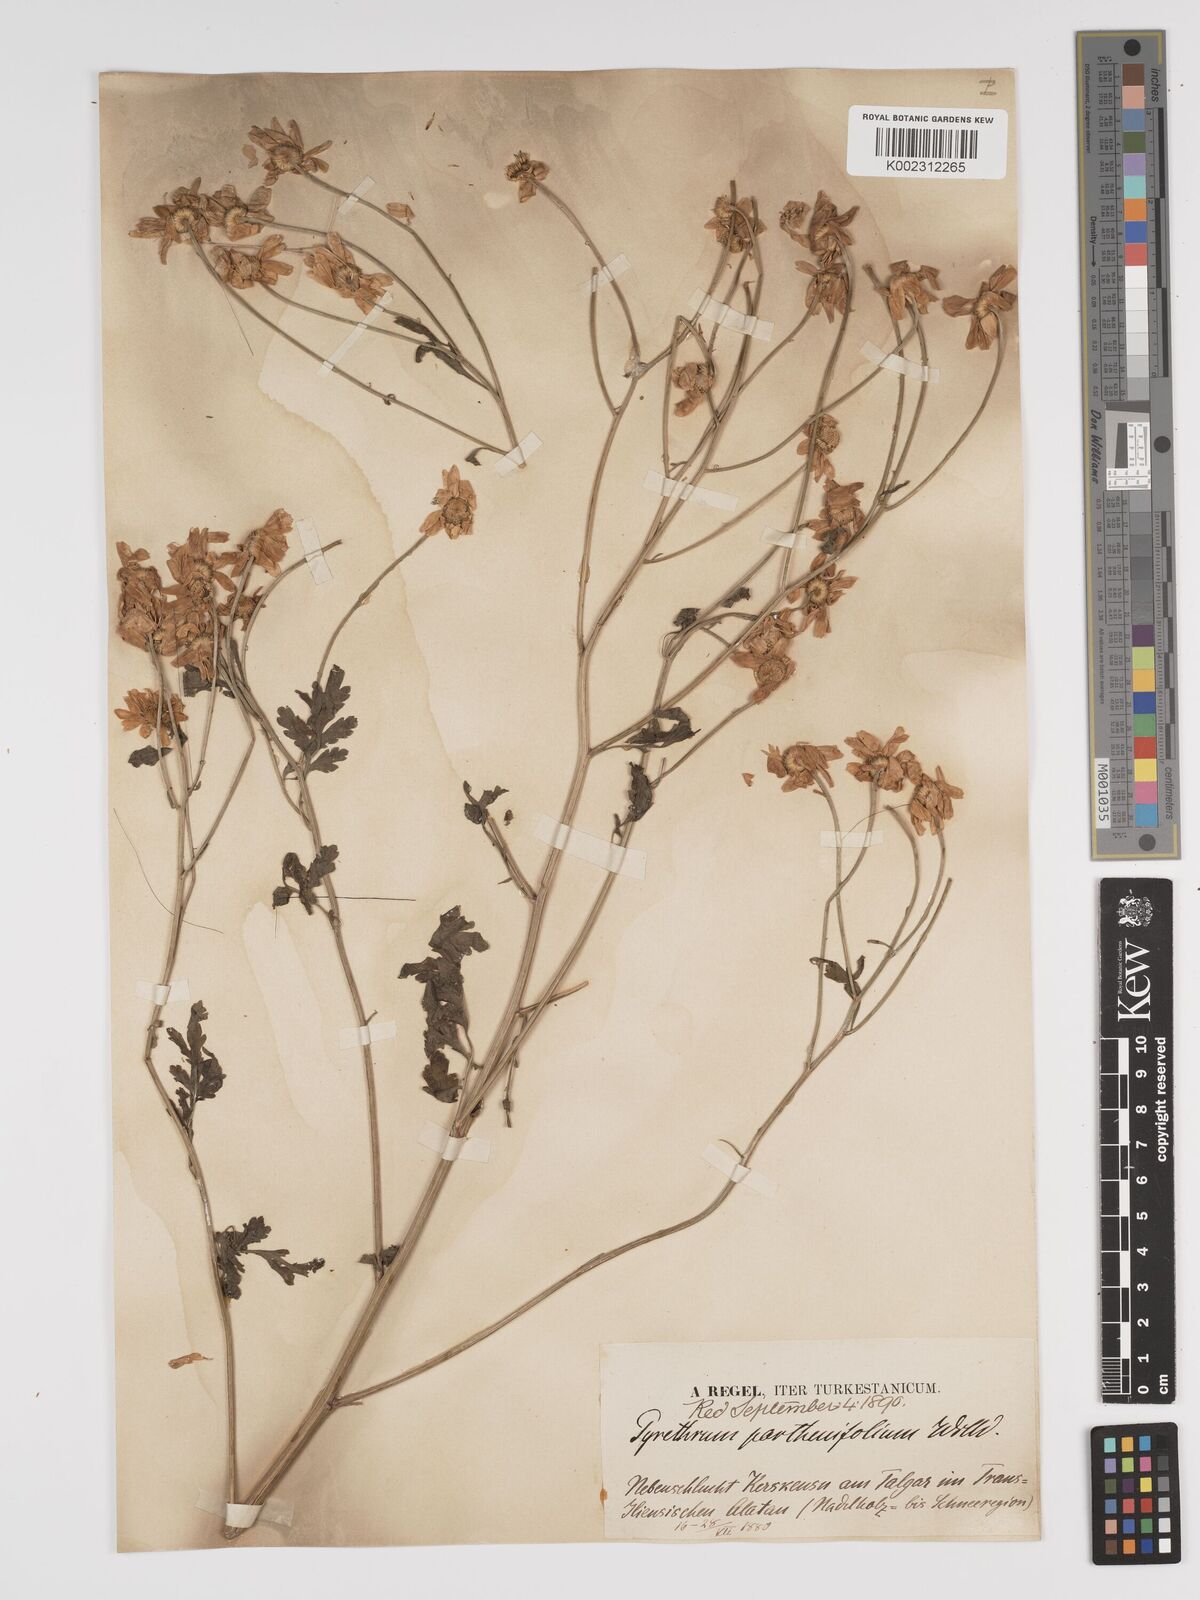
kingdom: Plantae
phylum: Tracheophyta
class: Magnoliopsida
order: Asterales
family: Asteraceae
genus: Tanacetum
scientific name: Tanacetum partheniifolium
